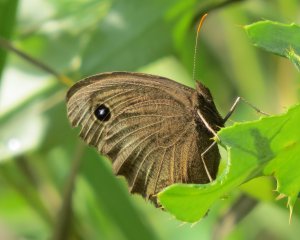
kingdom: Animalia
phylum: Arthropoda
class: Insecta
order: Lepidoptera
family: Nymphalidae
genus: Cercyonis
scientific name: Cercyonis pegala
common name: Common Wood-Nymph
